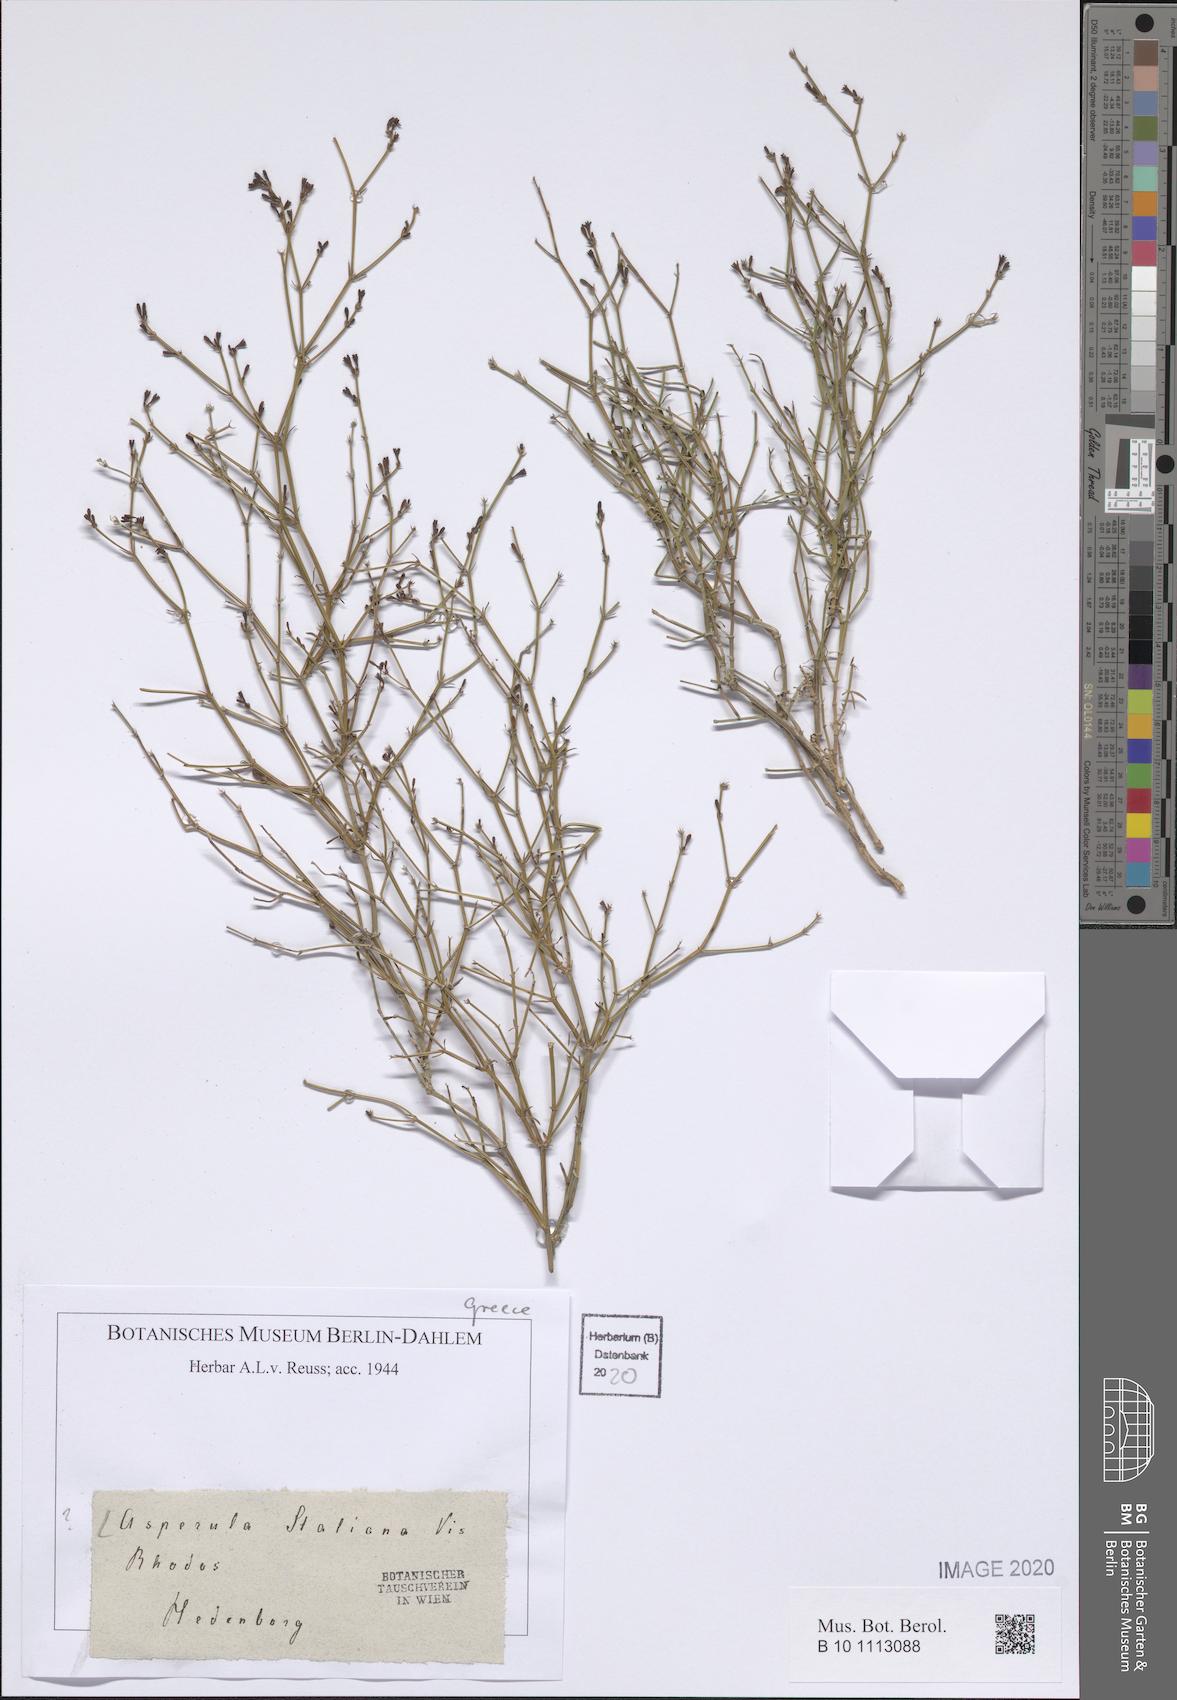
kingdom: Plantae
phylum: Tracheophyta
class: Magnoliopsida
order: Gentianales
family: Rubiaceae
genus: Thliphthisa
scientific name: Thliphthisa brevifolia
